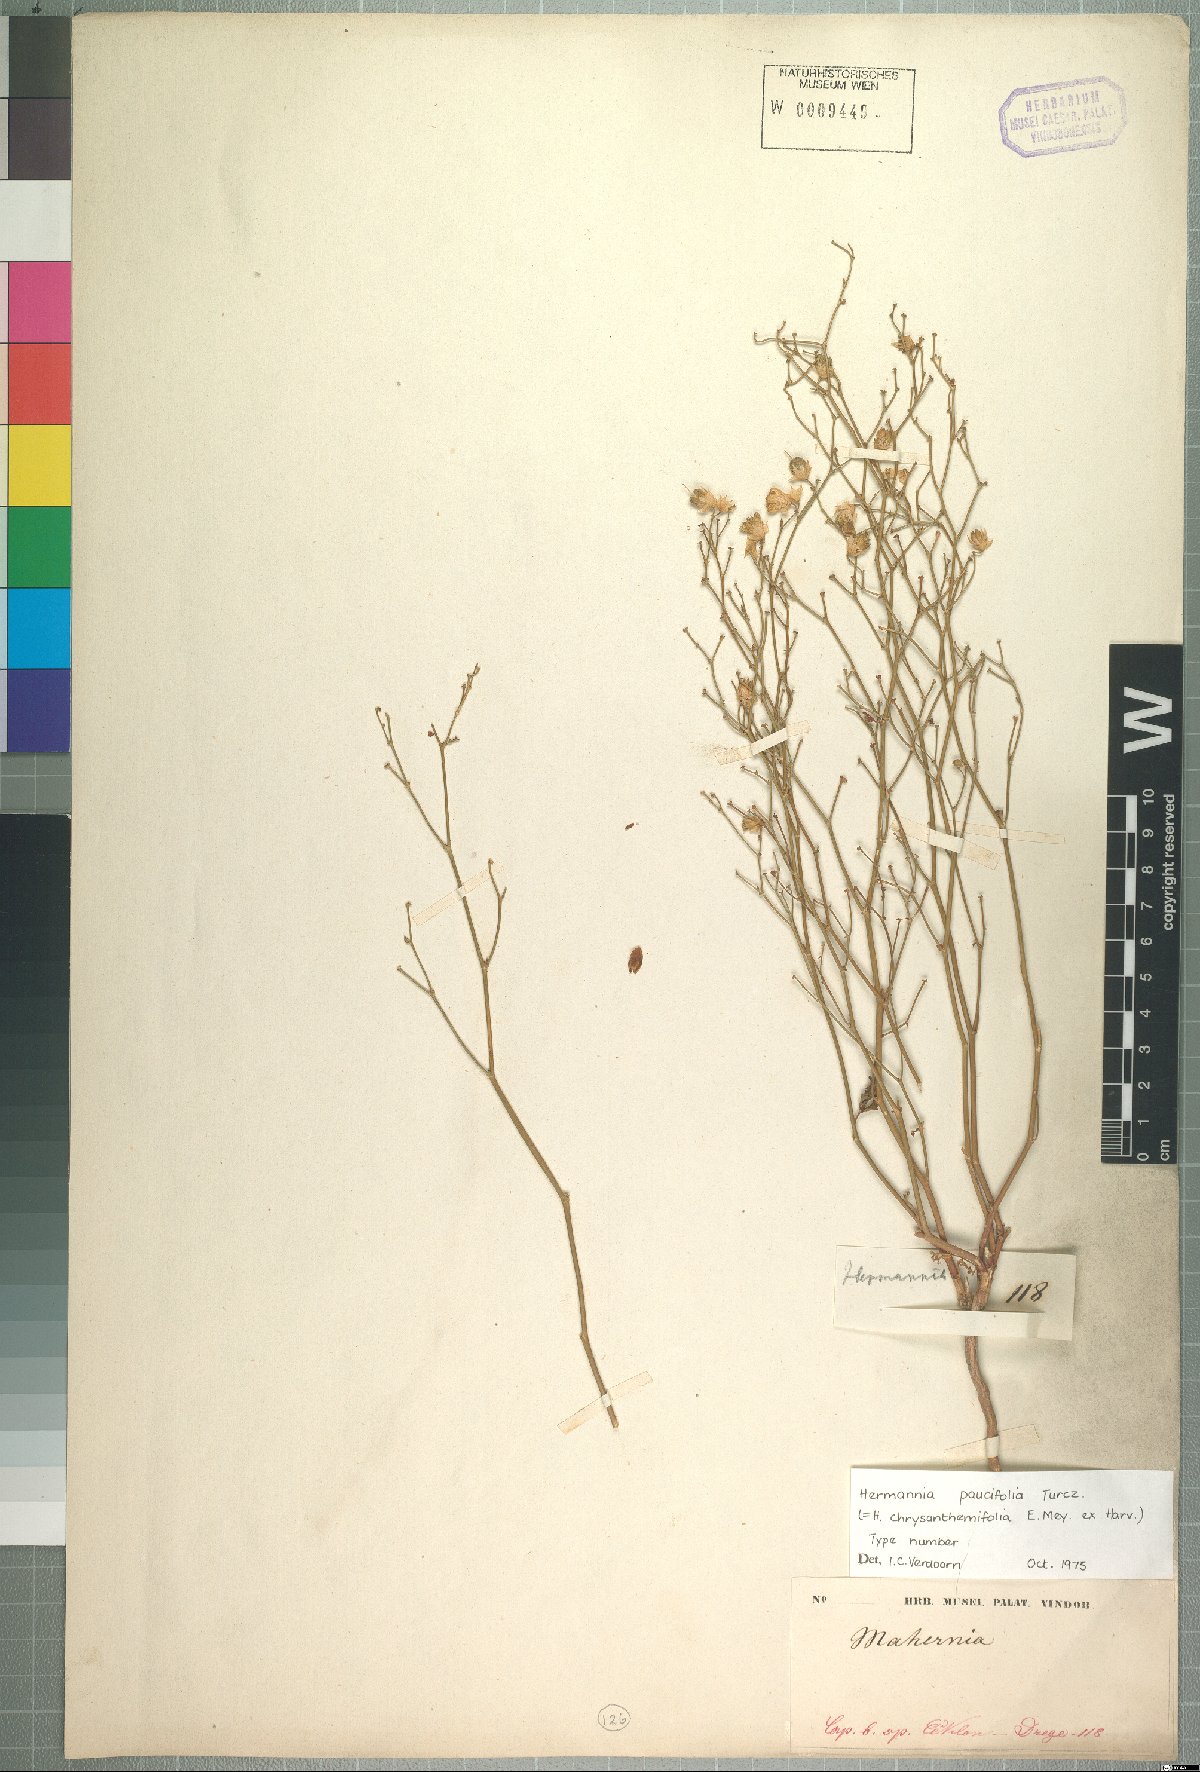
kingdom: Plantae
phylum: Tracheophyta
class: Magnoliopsida
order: Malvales
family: Malvaceae
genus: Hermannia
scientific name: Hermannia paucifolia
